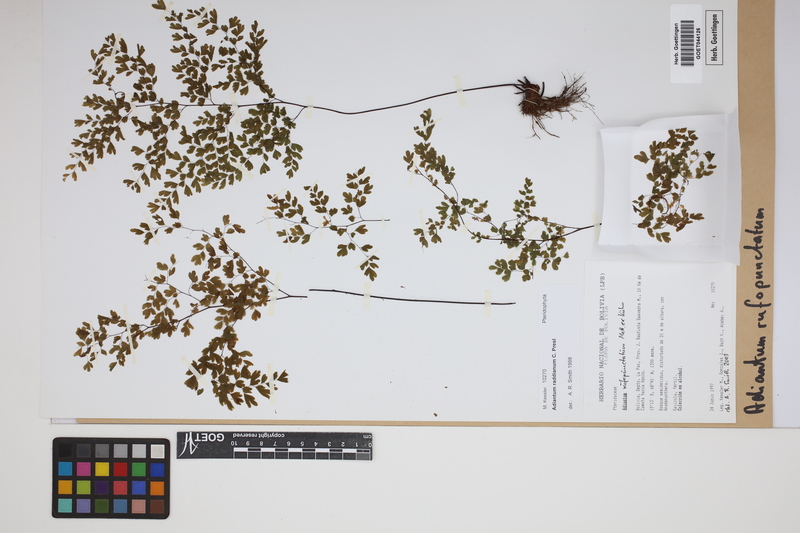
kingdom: Plantae
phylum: Tracheophyta
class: Polypodiopsida
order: Polypodiales
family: Pteridaceae
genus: Adiantum
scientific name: Adiantum rufopunctatum
